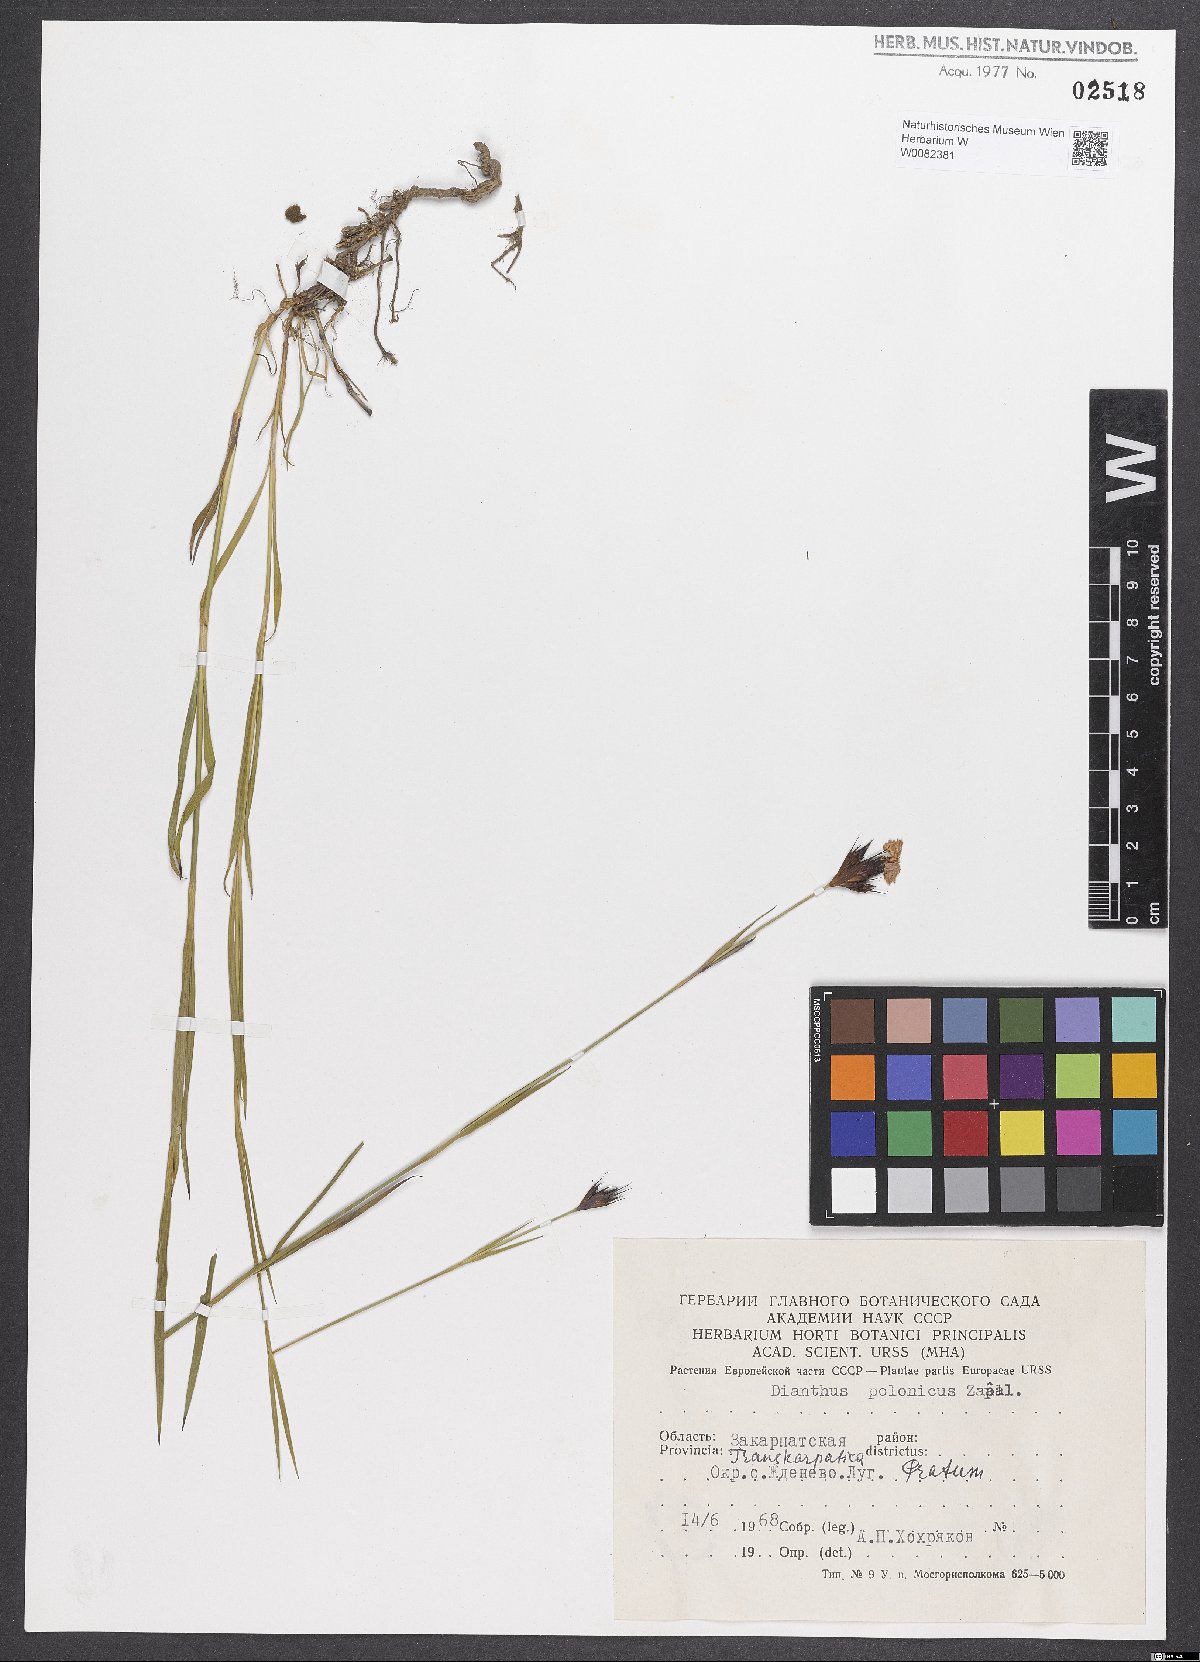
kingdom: Plantae
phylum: Tracheophyta
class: Magnoliopsida
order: Caryophyllales
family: Caryophyllaceae
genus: Dianthus
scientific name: Dianthus carthusianorum
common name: Carthusian pink
